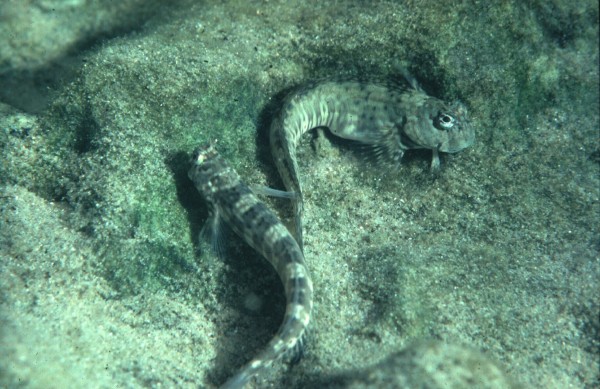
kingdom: Animalia
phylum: Chordata
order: Perciformes
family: Blenniidae
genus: Istiblennius
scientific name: Istiblennius
